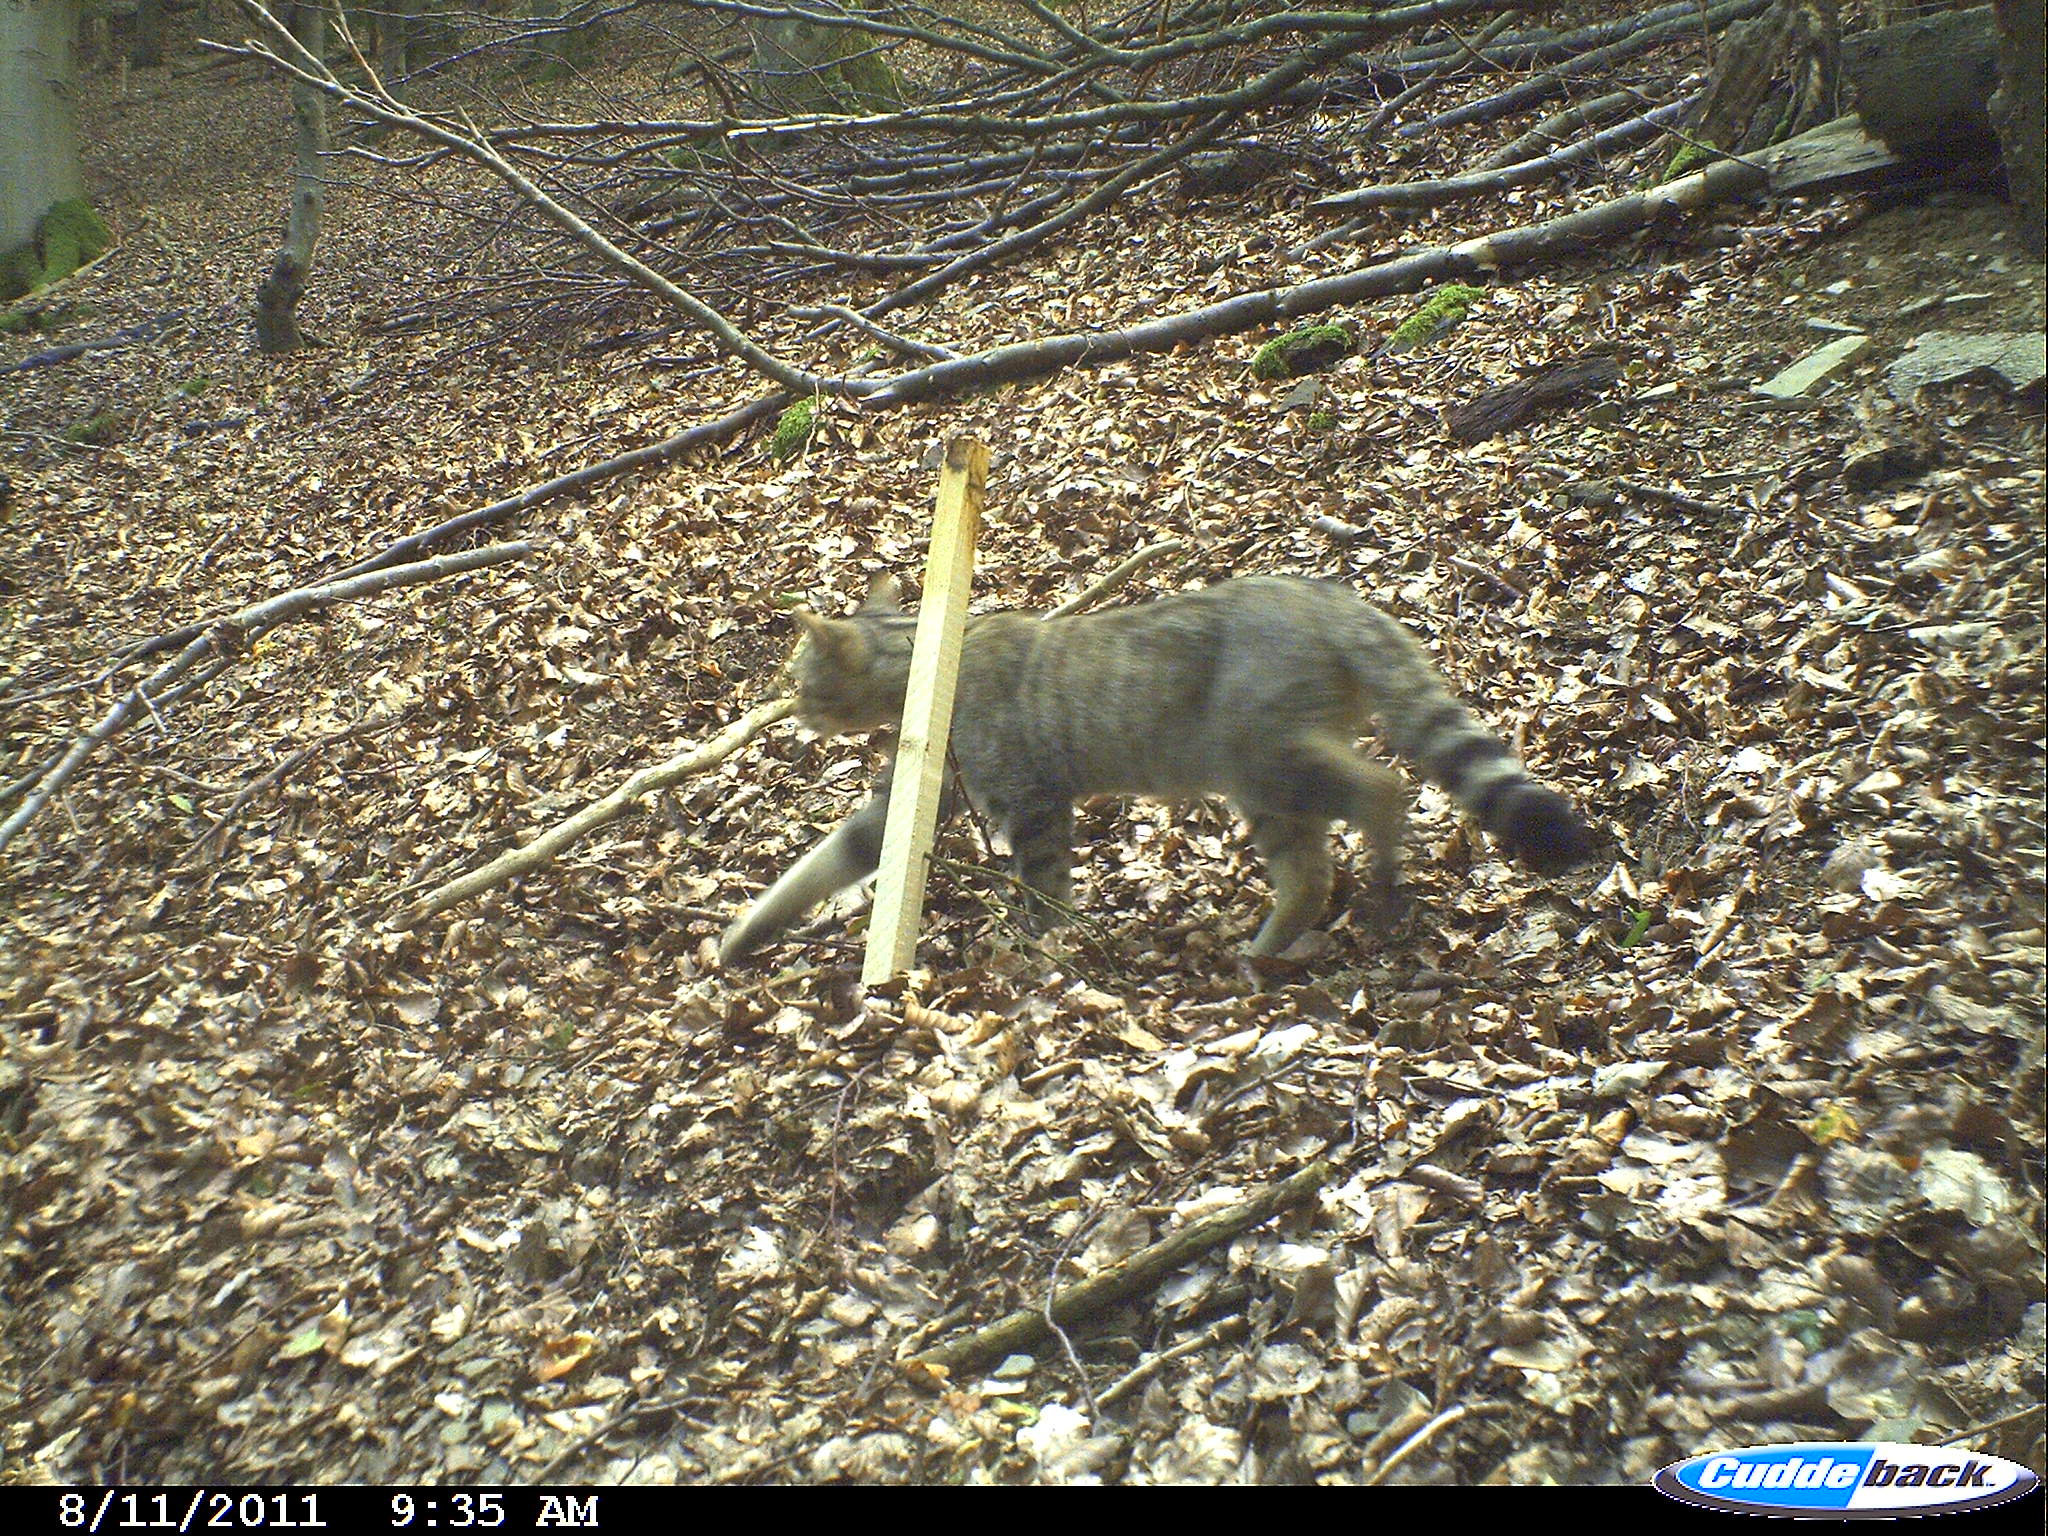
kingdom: Animalia
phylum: Chordata
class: Mammalia
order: Carnivora
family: Felidae
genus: Felis
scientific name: Felis silvestris
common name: Wildcat
